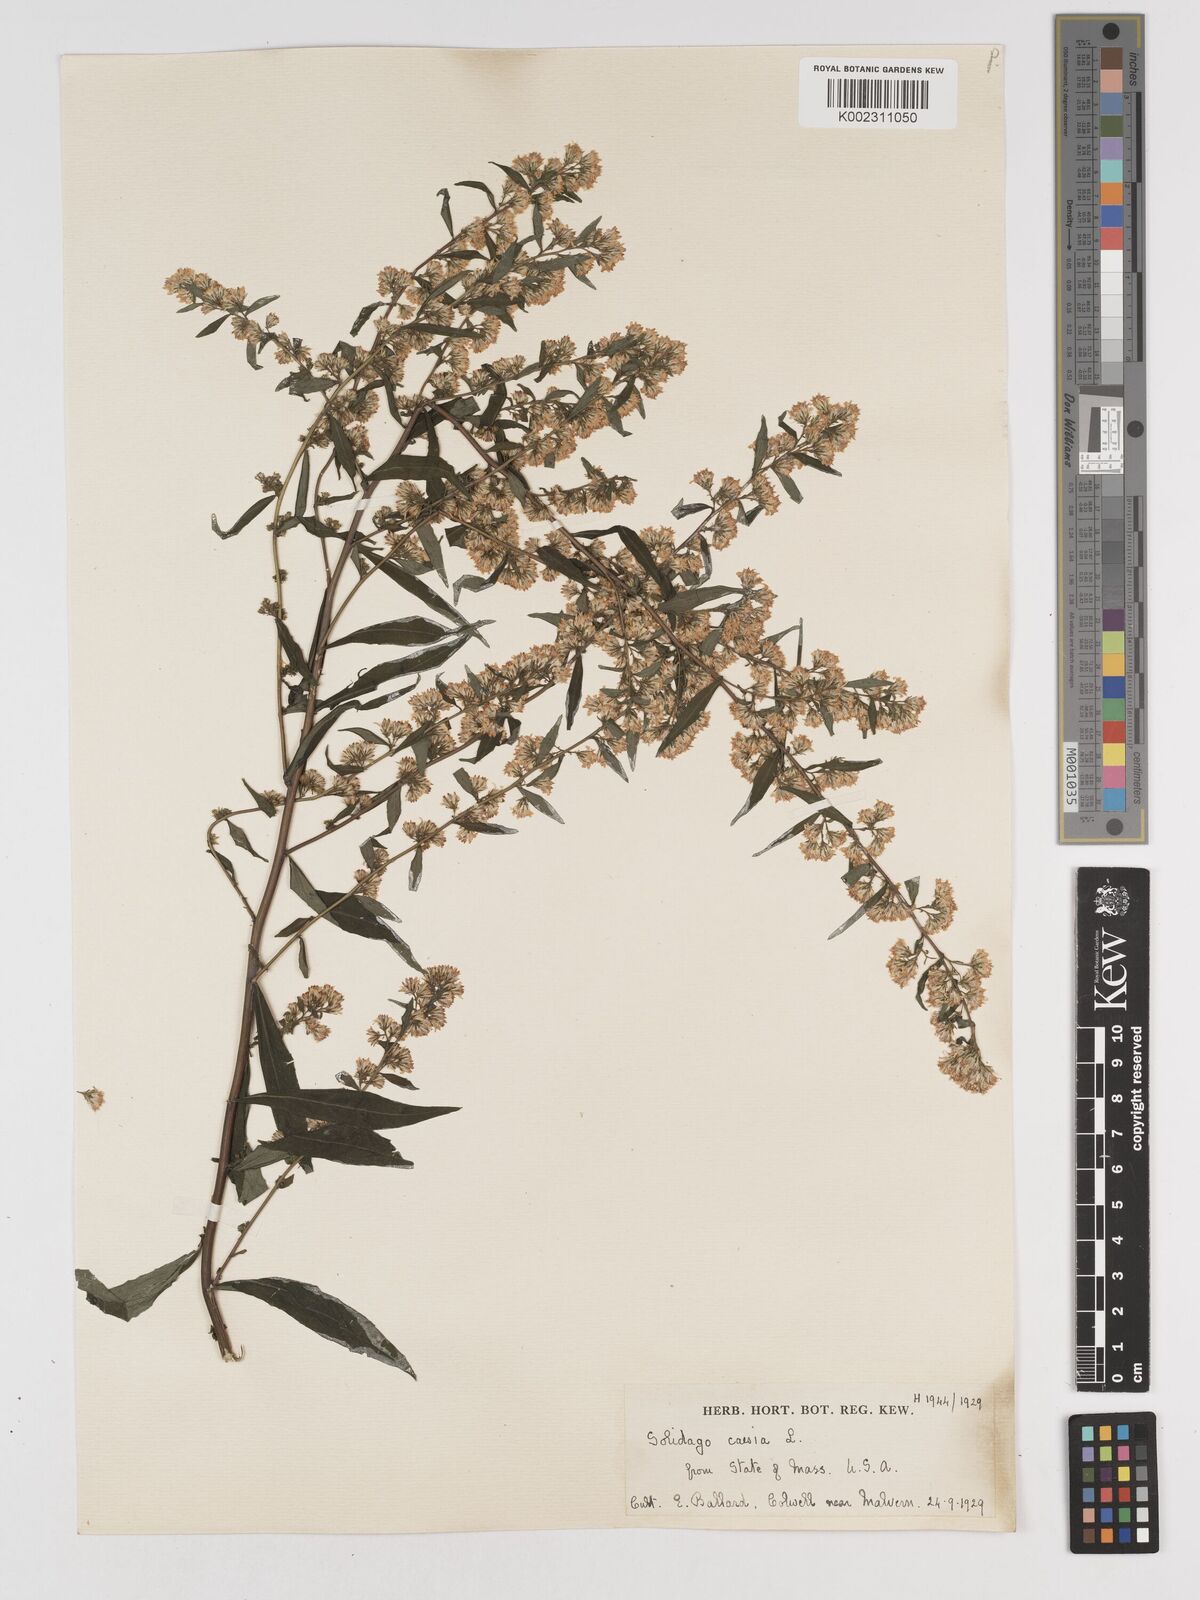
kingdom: Plantae
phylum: Tracheophyta
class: Magnoliopsida
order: Asterales
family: Asteraceae
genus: Solidago
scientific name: Solidago caesia
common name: Woodland goldenrod
